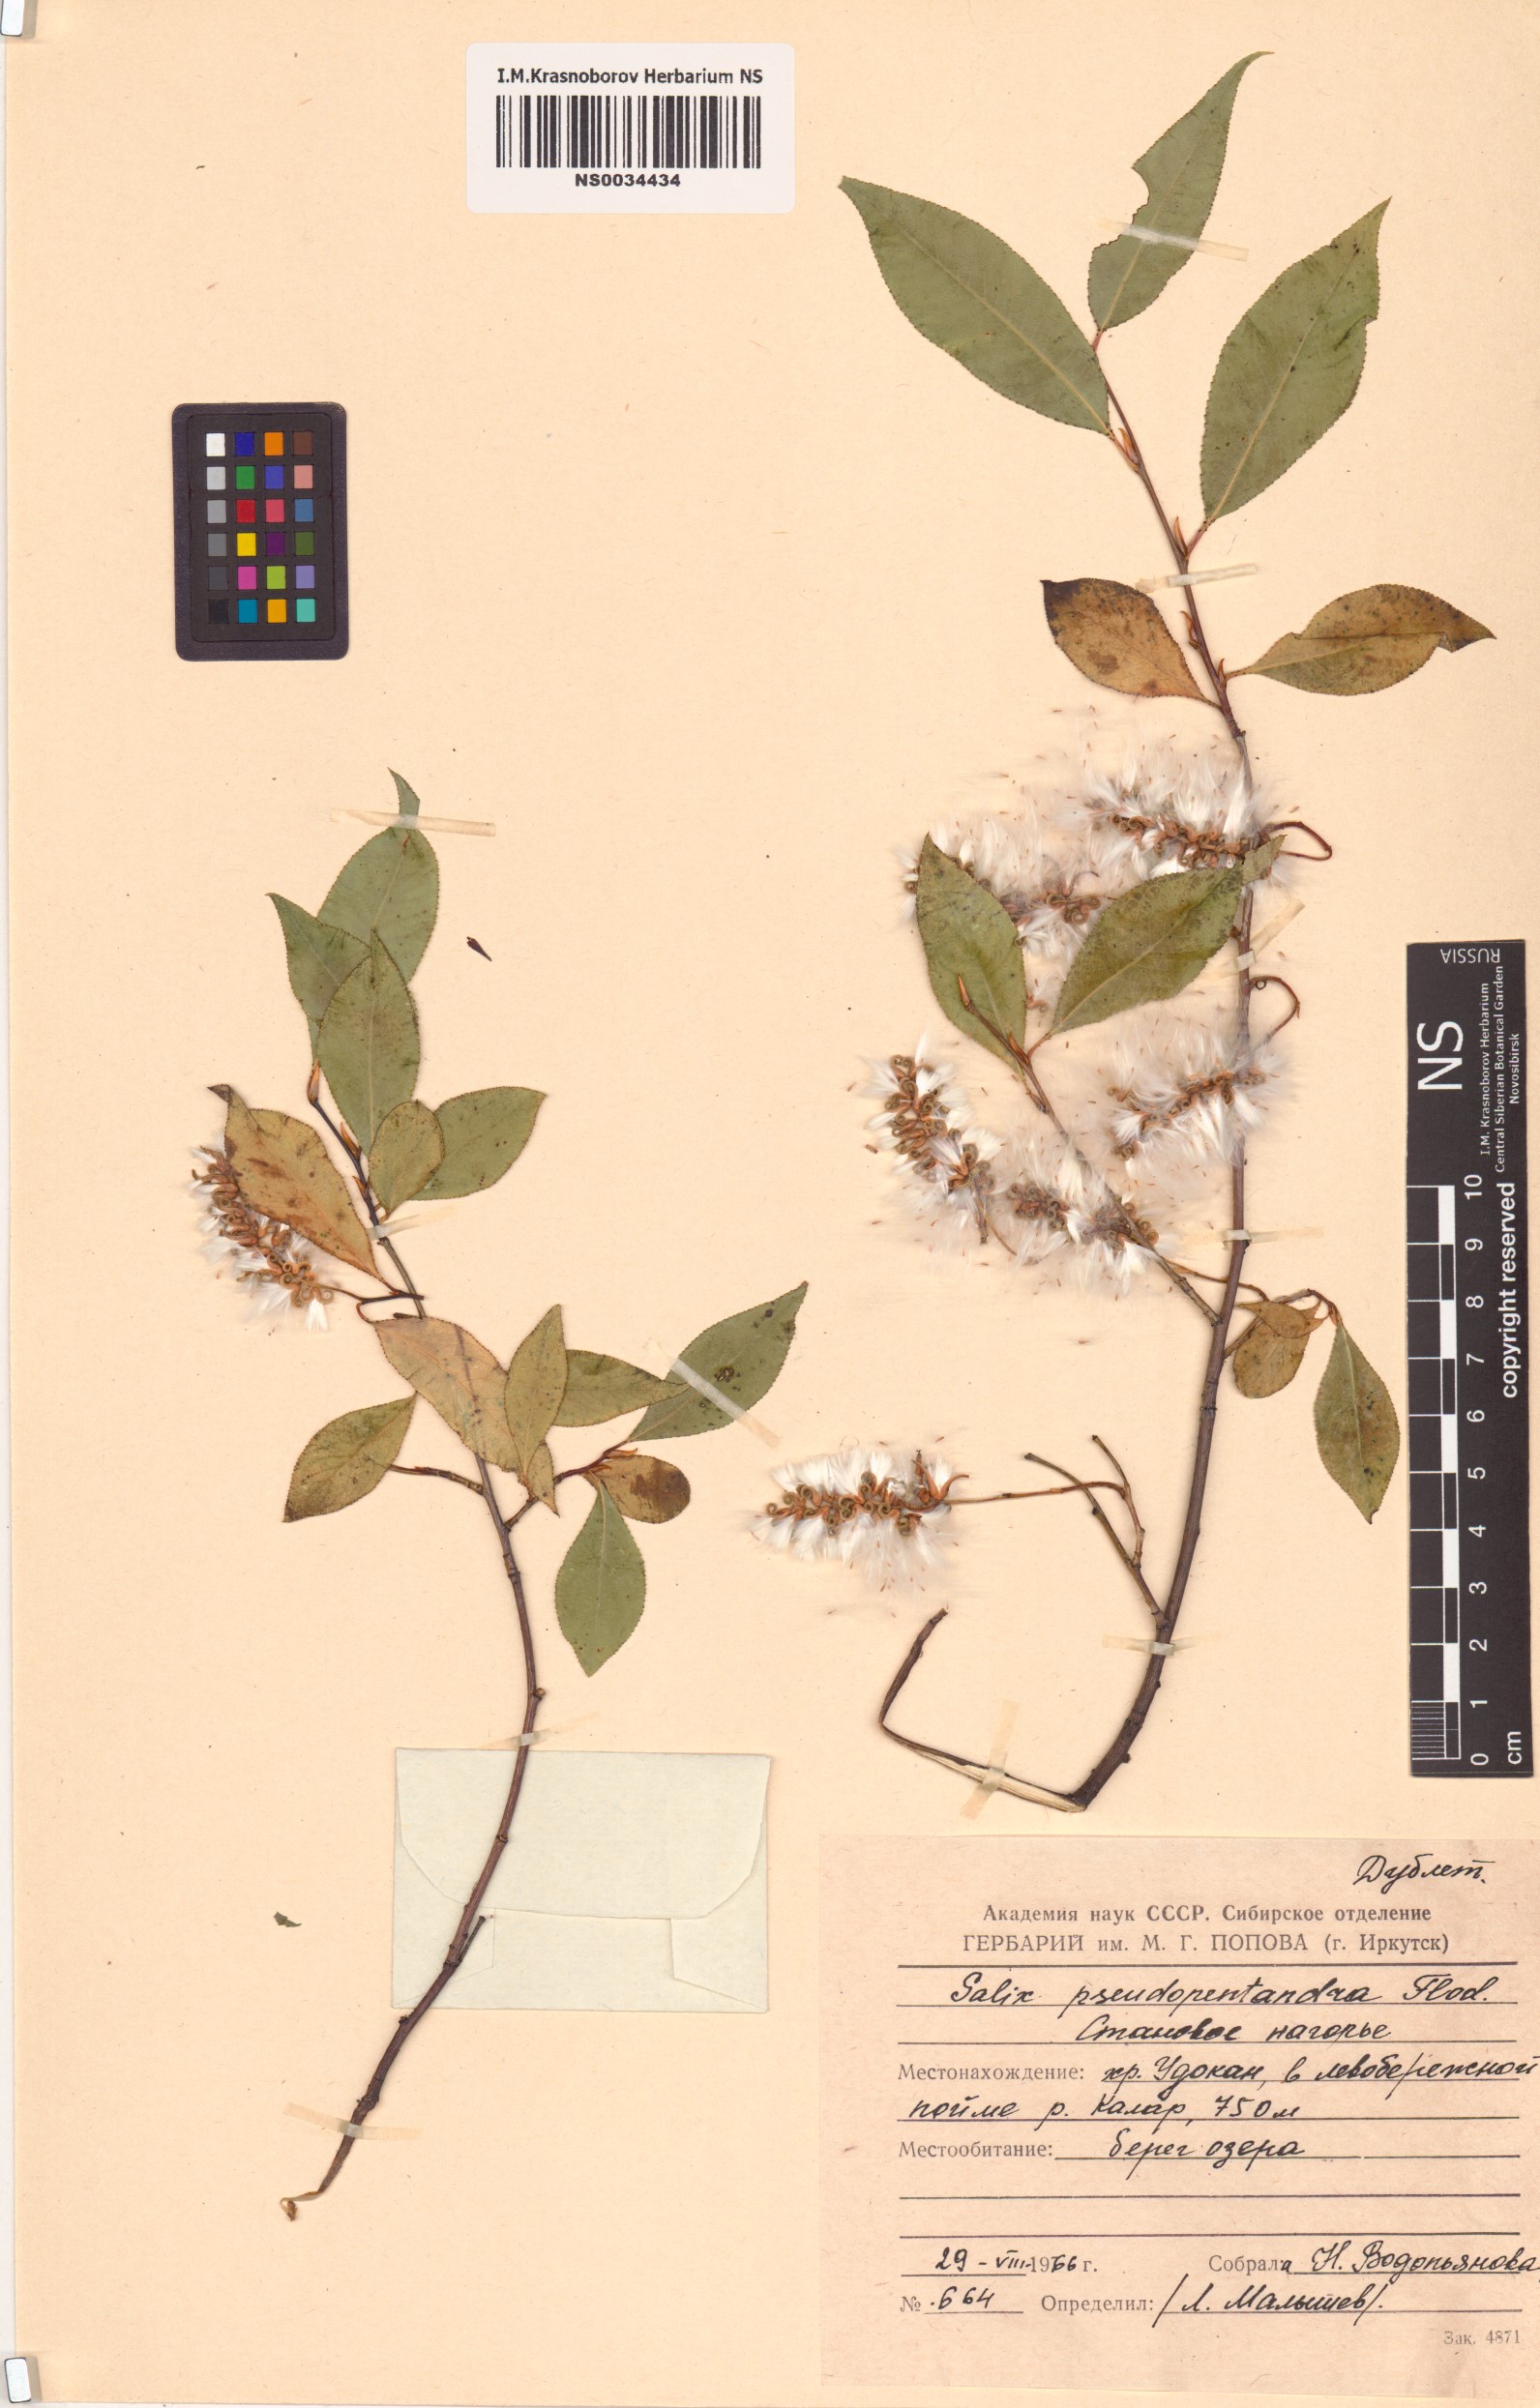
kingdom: Plantae
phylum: Tracheophyta
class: Magnoliopsida
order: Malpighiales
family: Salicaceae
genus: Salix
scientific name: Salix pseudopentandra
